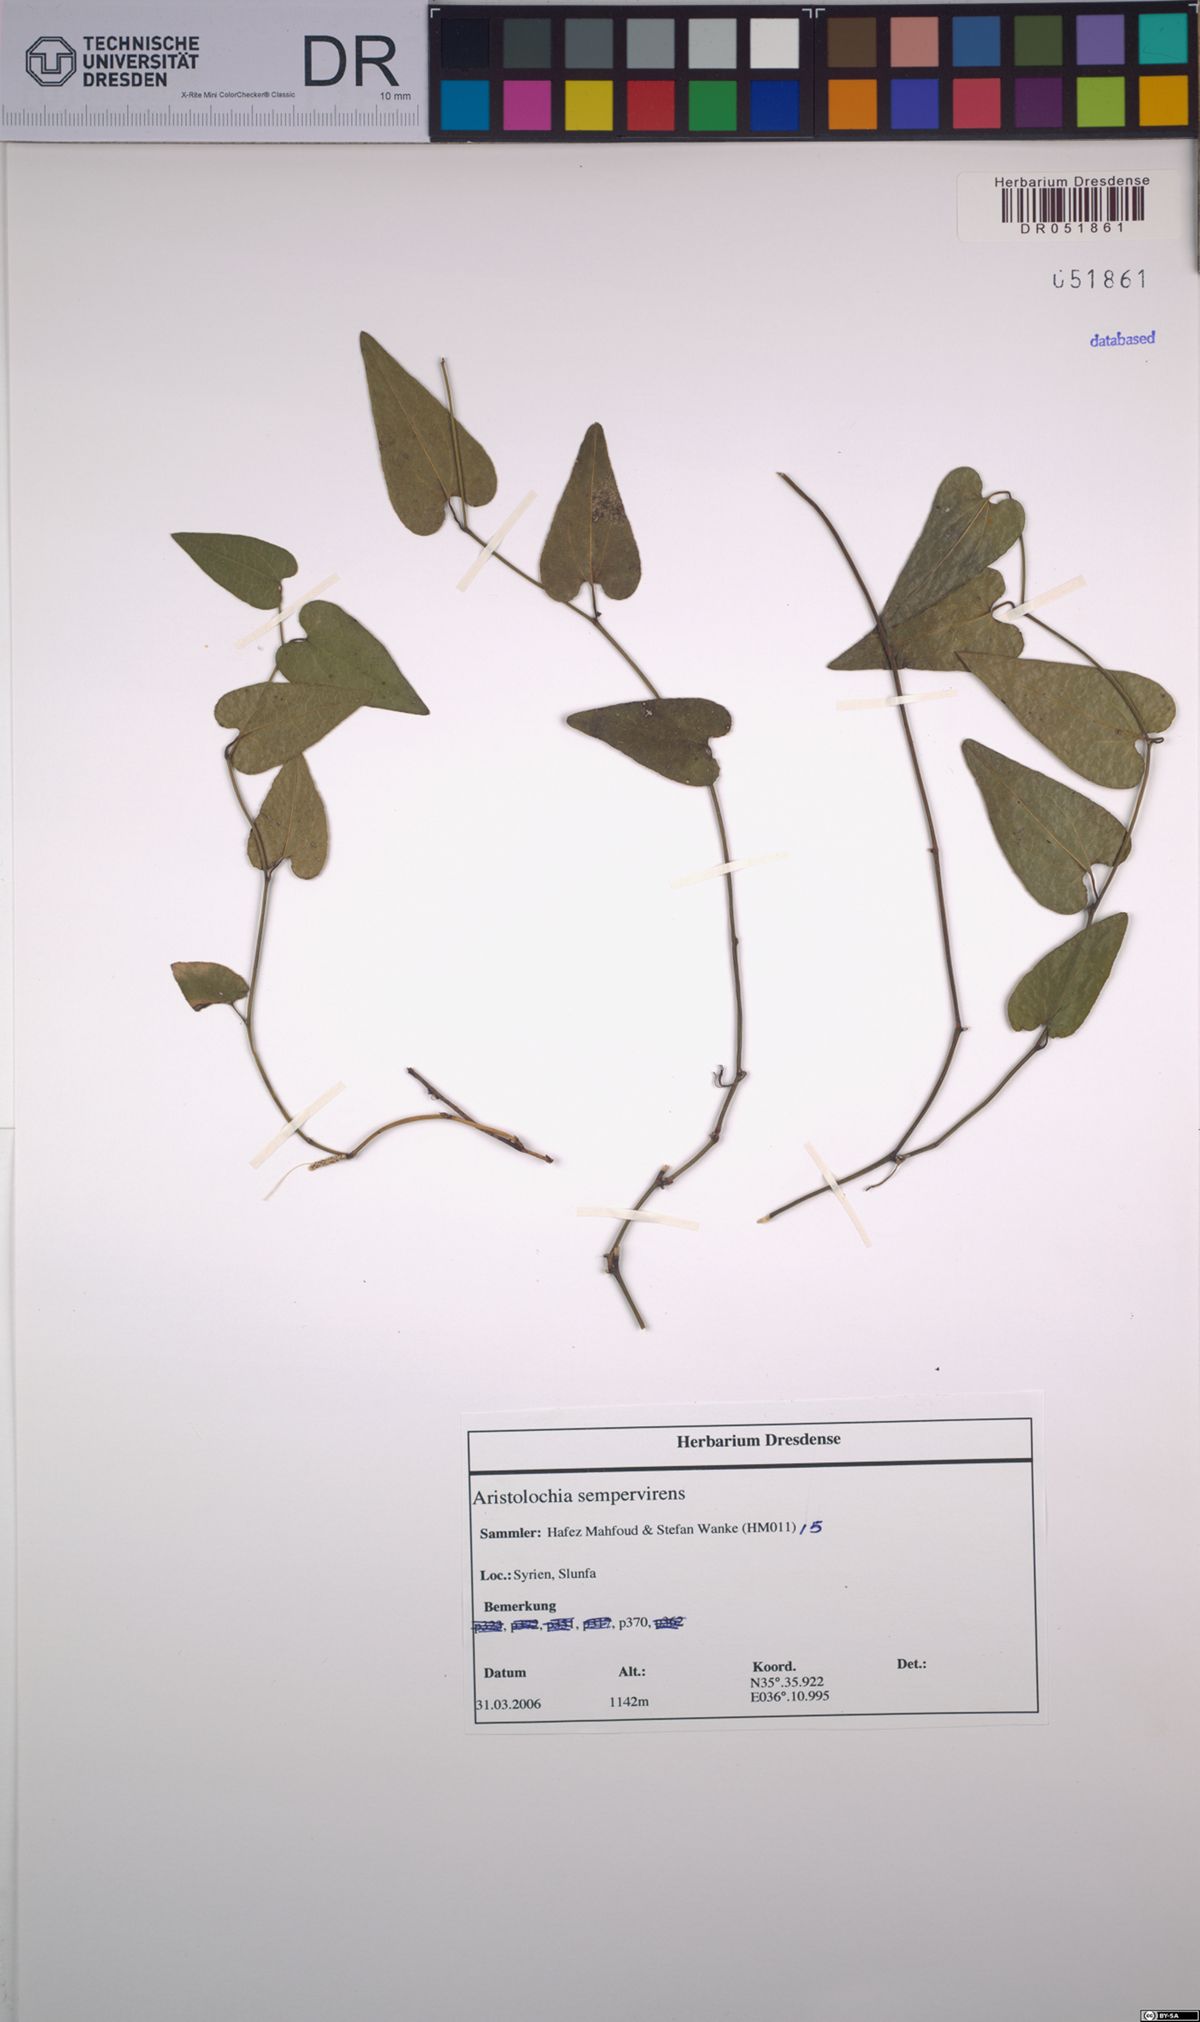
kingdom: Plantae
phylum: Tracheophyta
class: Magnoliopsida
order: Piperales
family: Aristolochiaceae
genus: Aristolochia
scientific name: Aristolochia sempervirens
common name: Long birthwort
